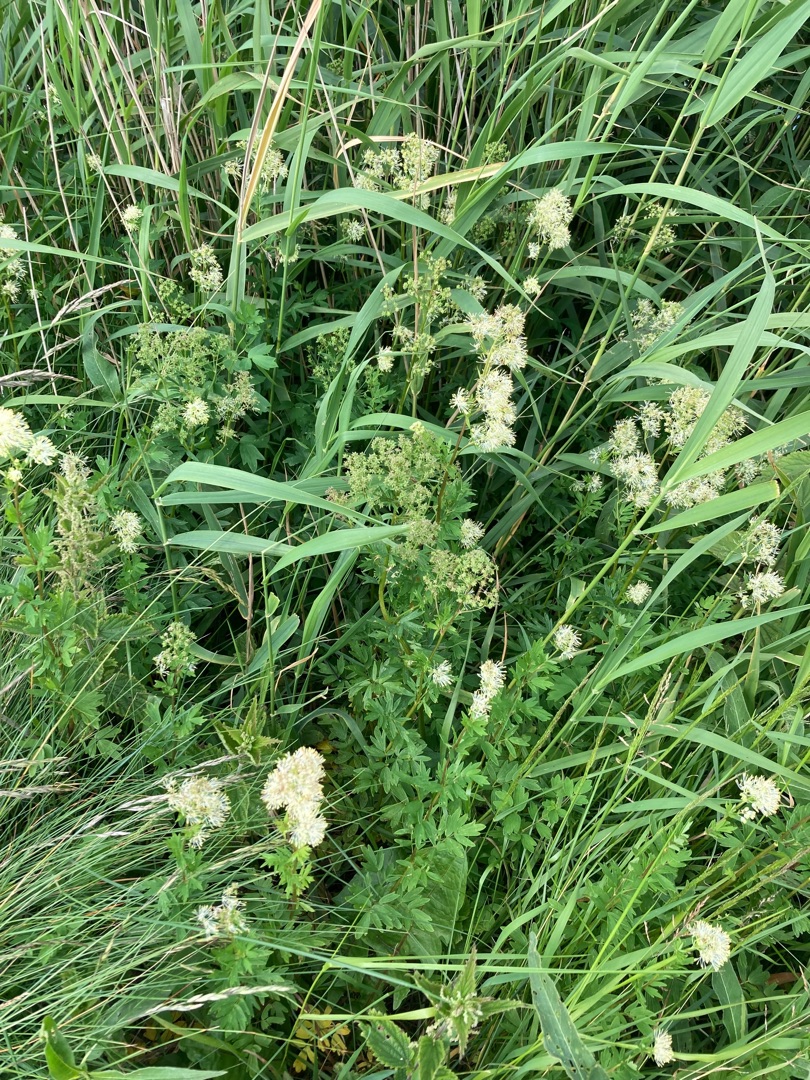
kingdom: Plantae
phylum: Tracheophyta
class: Magnoliopsida
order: Ranunculales
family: Ranunculaceae
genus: Thalictrum
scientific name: Thalictrum flavum
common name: Gul frøstjerne
